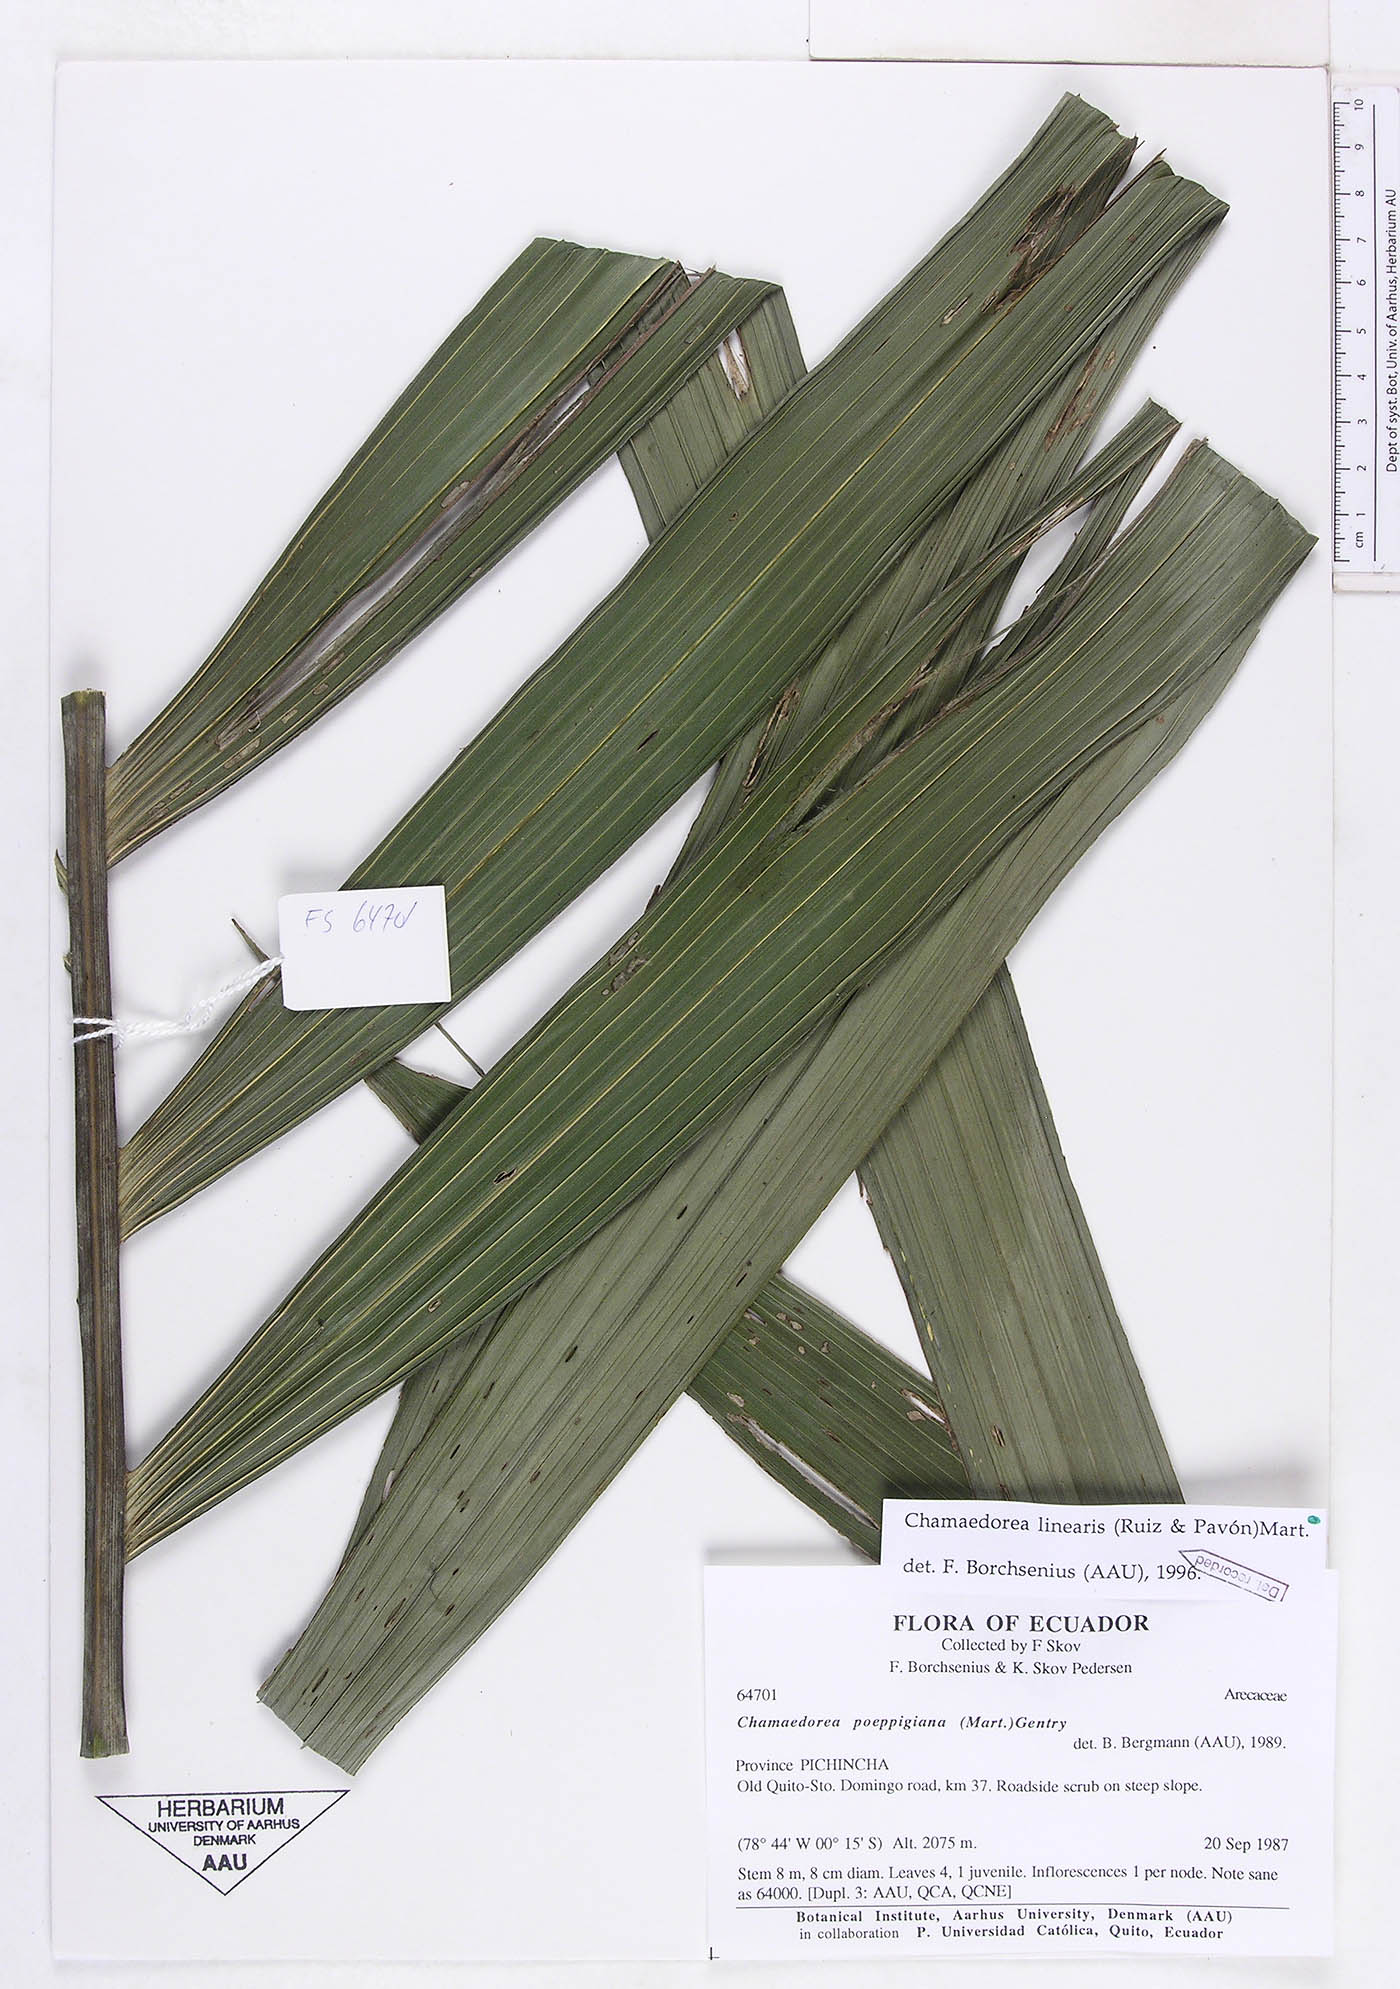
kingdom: Plantae
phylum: Tracheophyta
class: Liliopsida
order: Arecales
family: Arecaceae
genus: Chamaedorea
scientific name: Chamaedorea linearis
